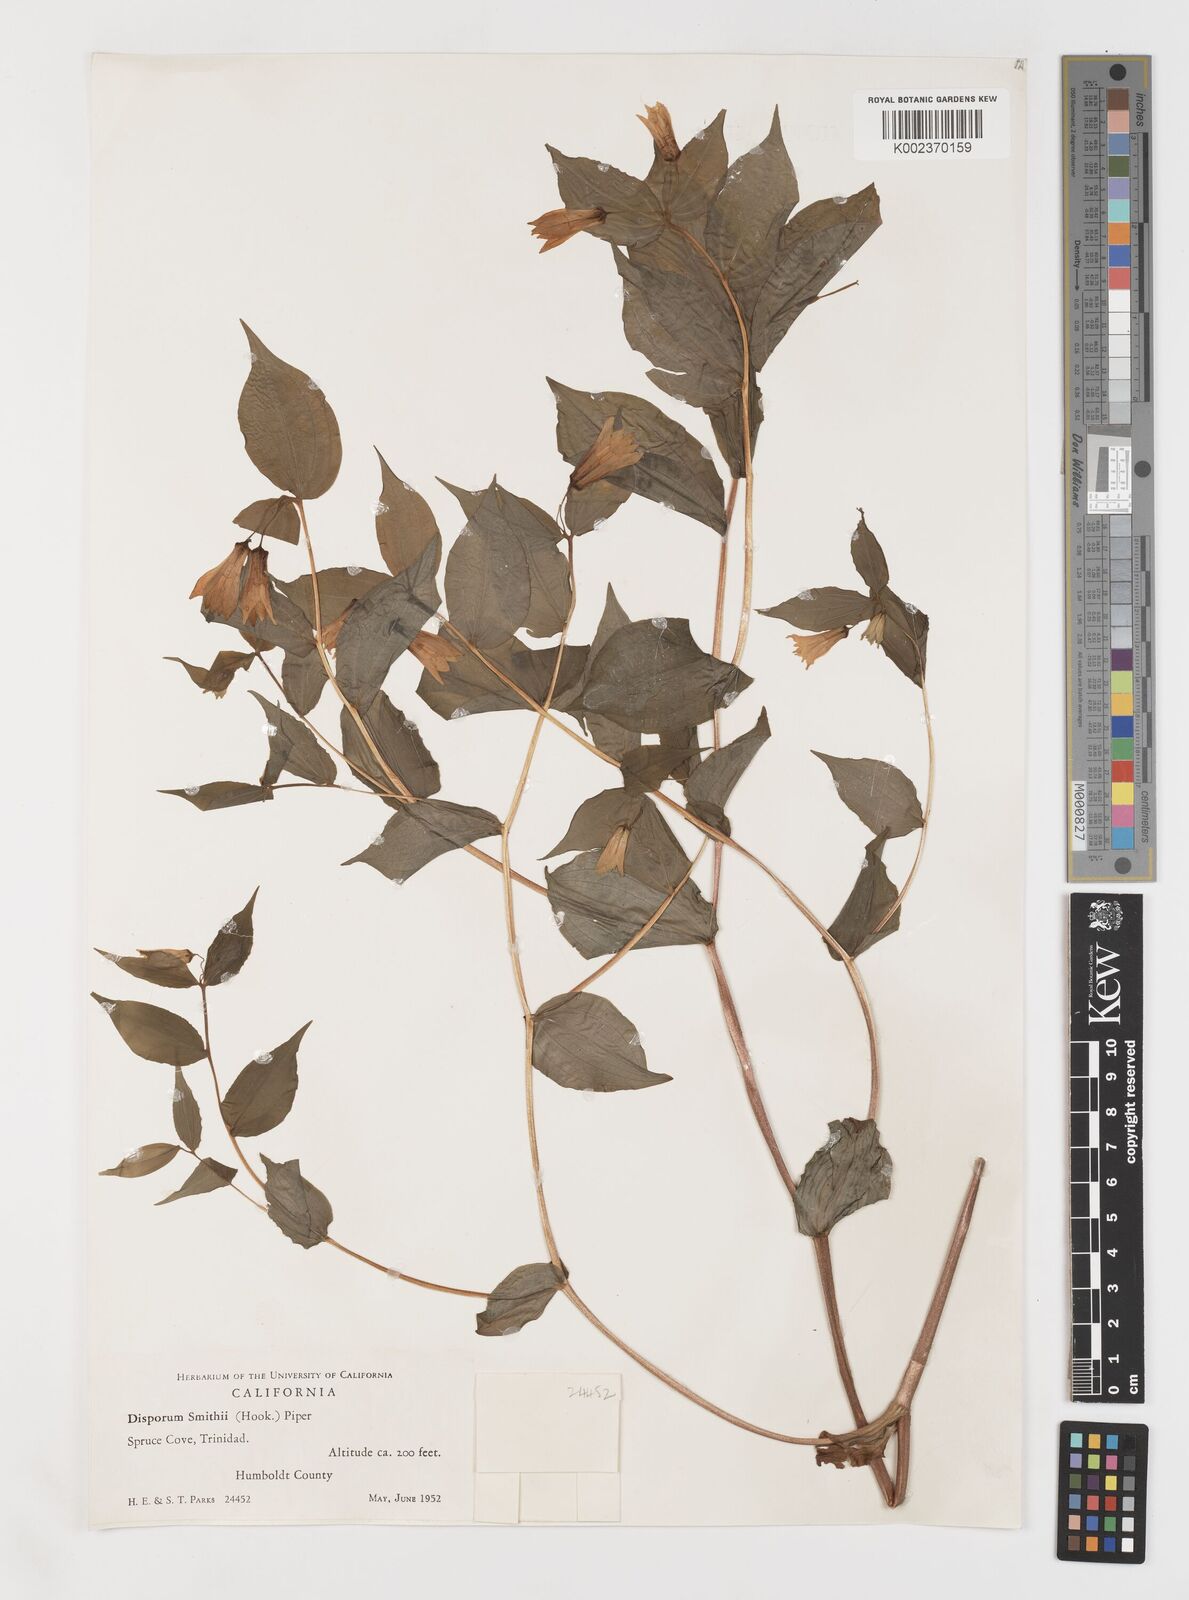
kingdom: Plantae
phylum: Tracheophyta
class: Liliopsida
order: Liliales
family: Liliaceae
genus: Prosartes
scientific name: Prosartes smithii
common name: Fairy-lantern
